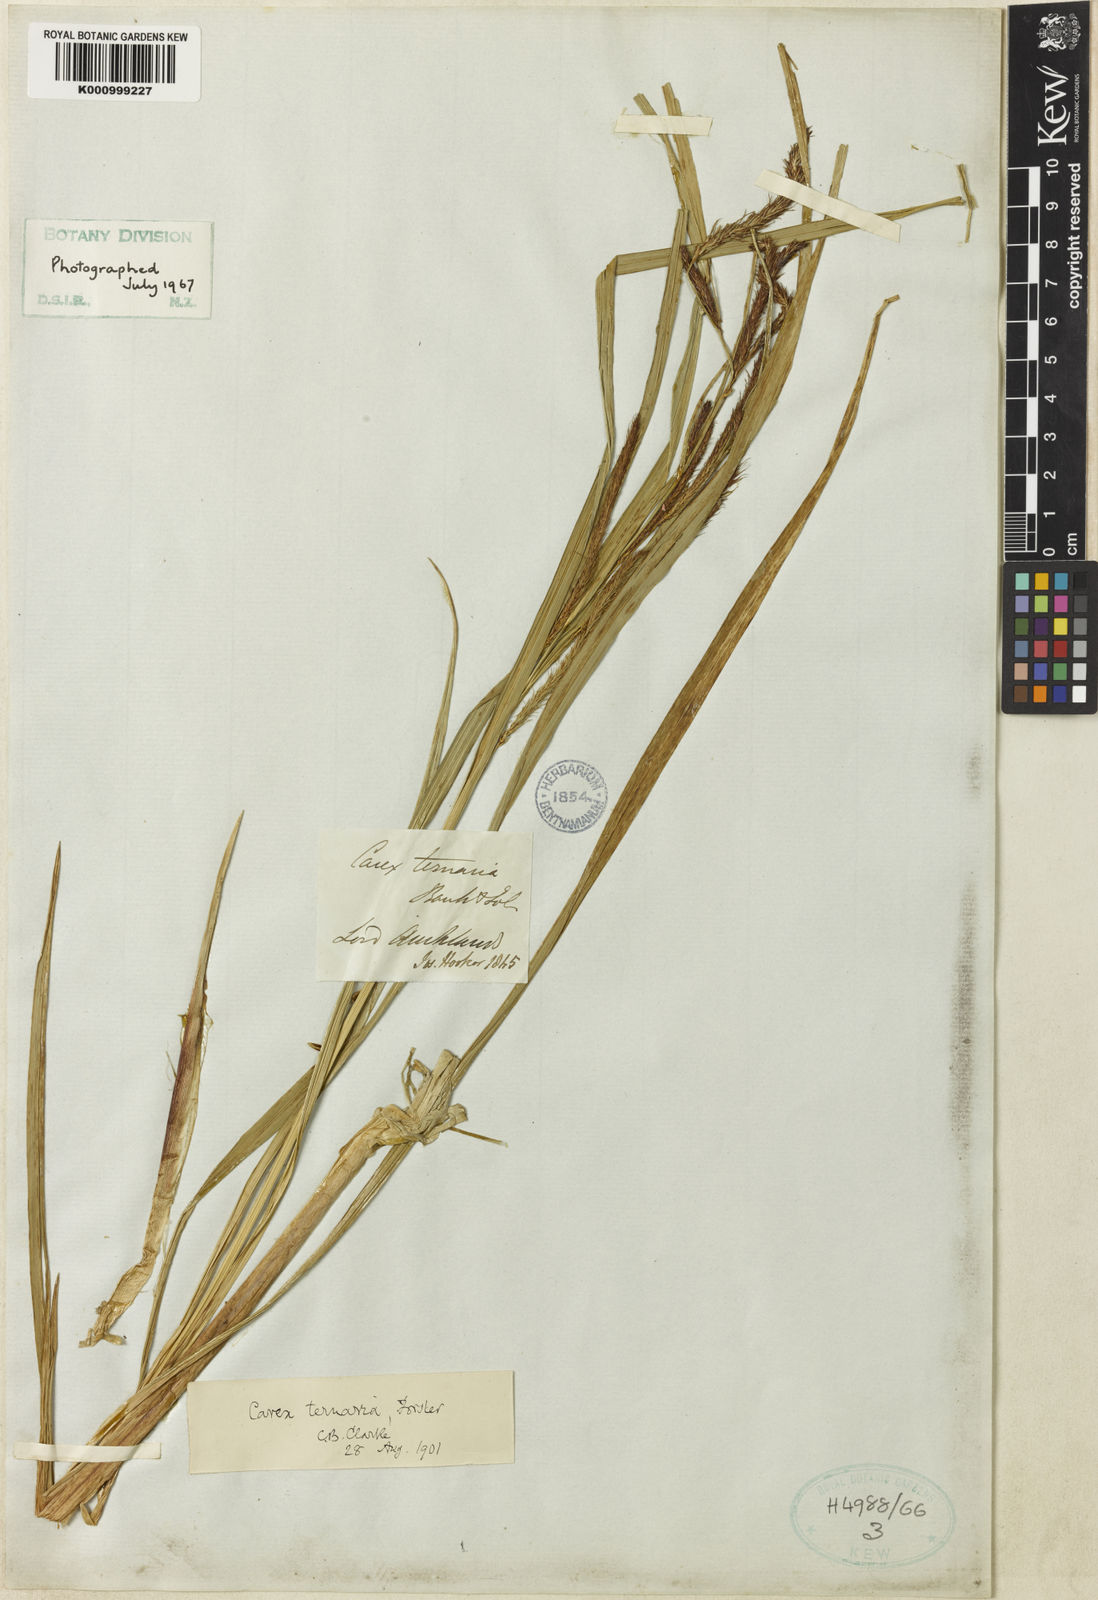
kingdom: Plantae
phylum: Tracheophyta
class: Liliopsida
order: Poales
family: Cyperaceae
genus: Carex
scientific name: Carex geminata
